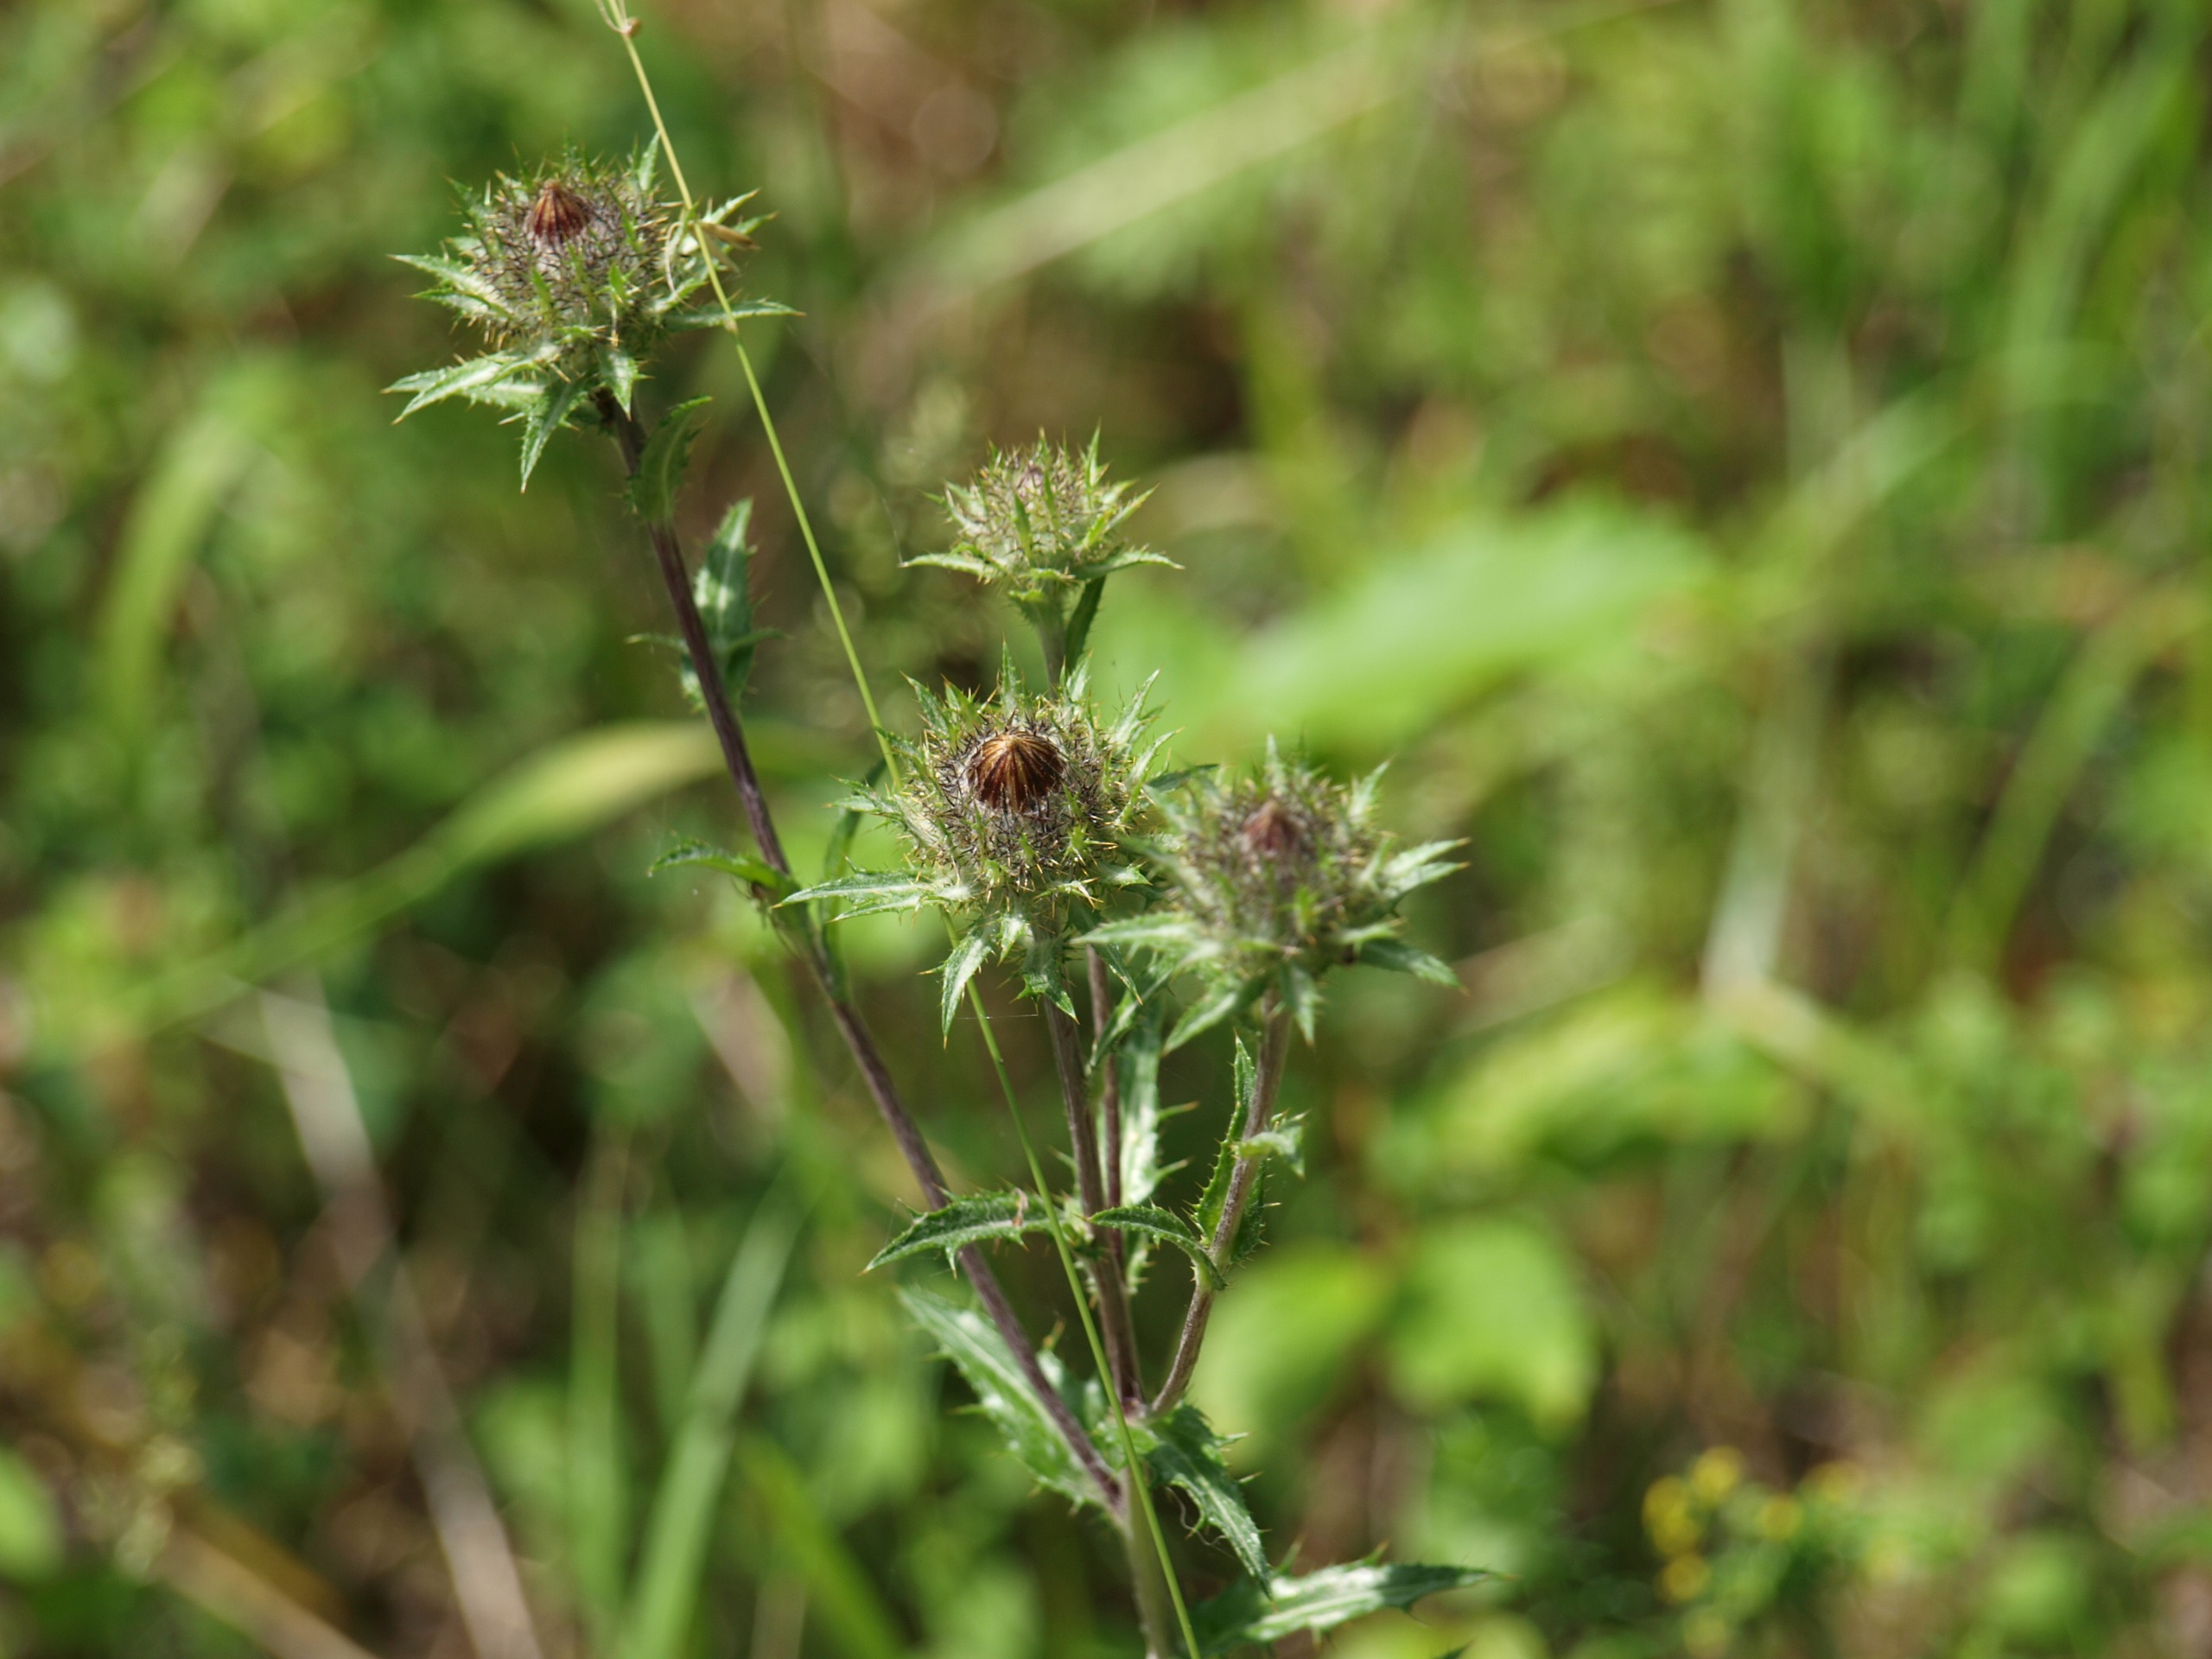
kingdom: Plantae
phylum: Tracheophyta
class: Magnoliopsida
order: Asterales
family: Asteraceae
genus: Carlina
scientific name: Carlina vulgaris
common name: Bakketidsel
